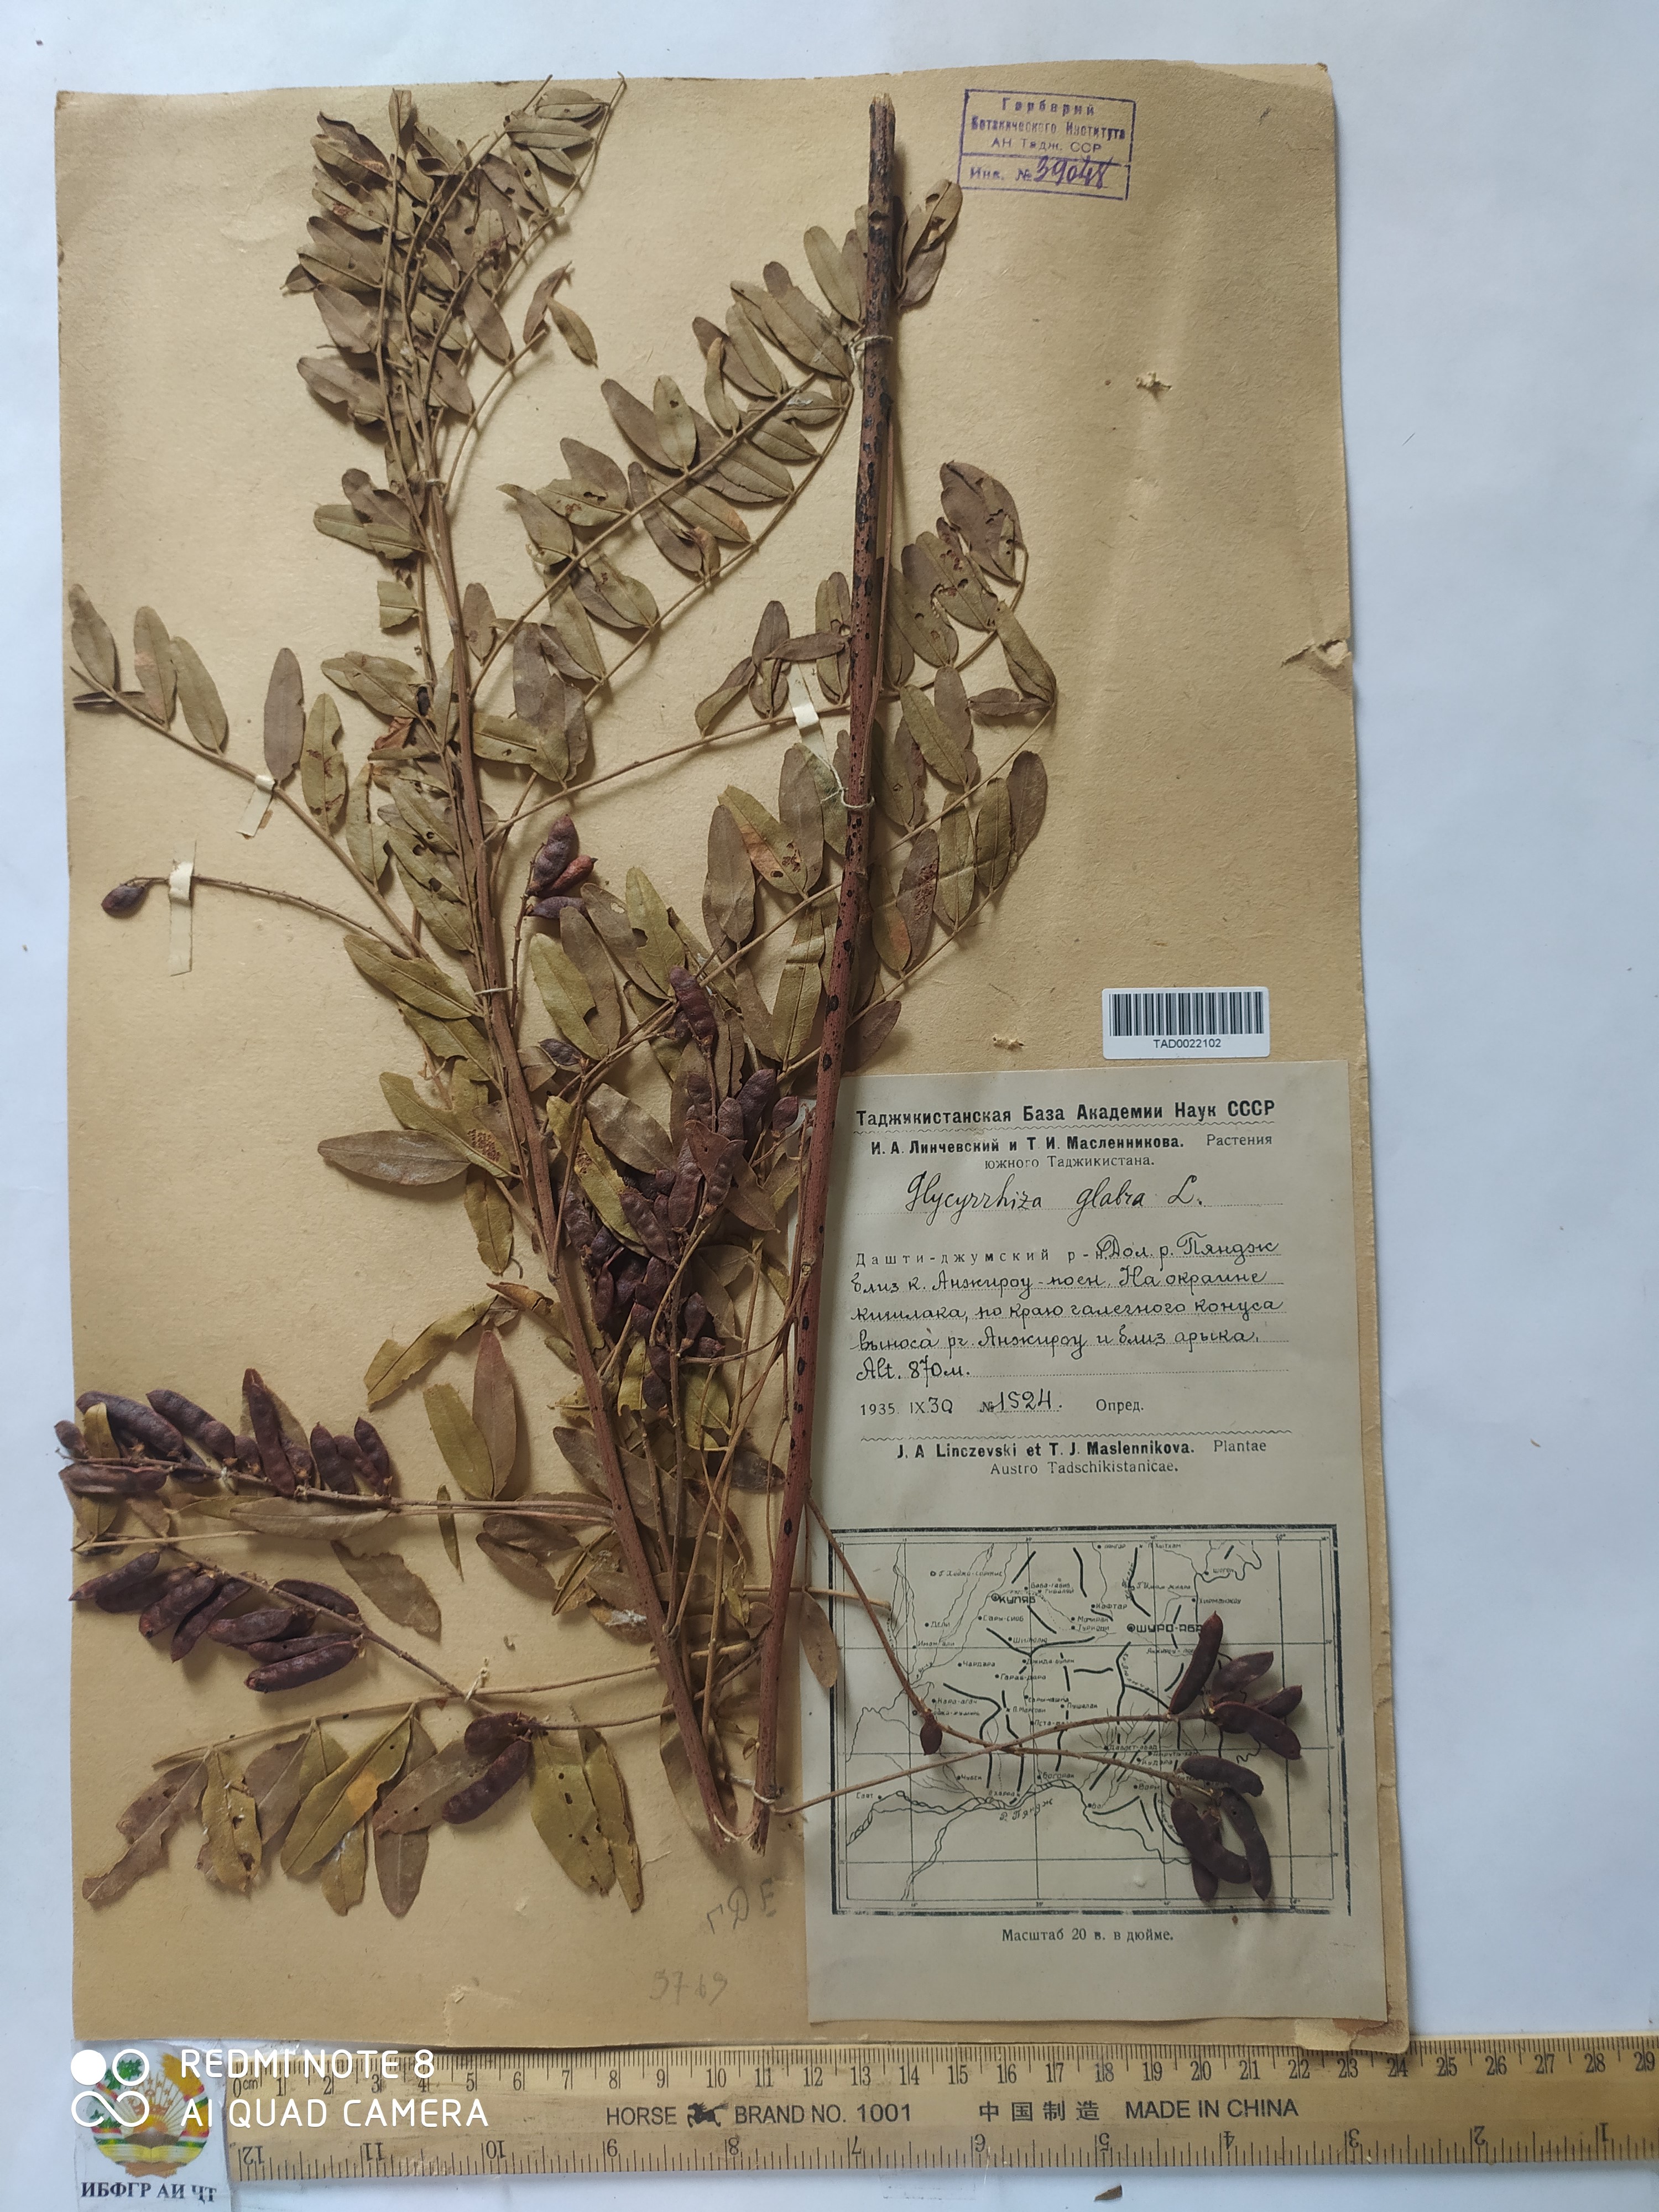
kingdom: Plantae
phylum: Tracheophyta
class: Magnoliopsida
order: Fabales
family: Fabaceae
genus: Glycyrrhiza
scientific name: Glycyrrhiza glabra
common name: Liquorice
